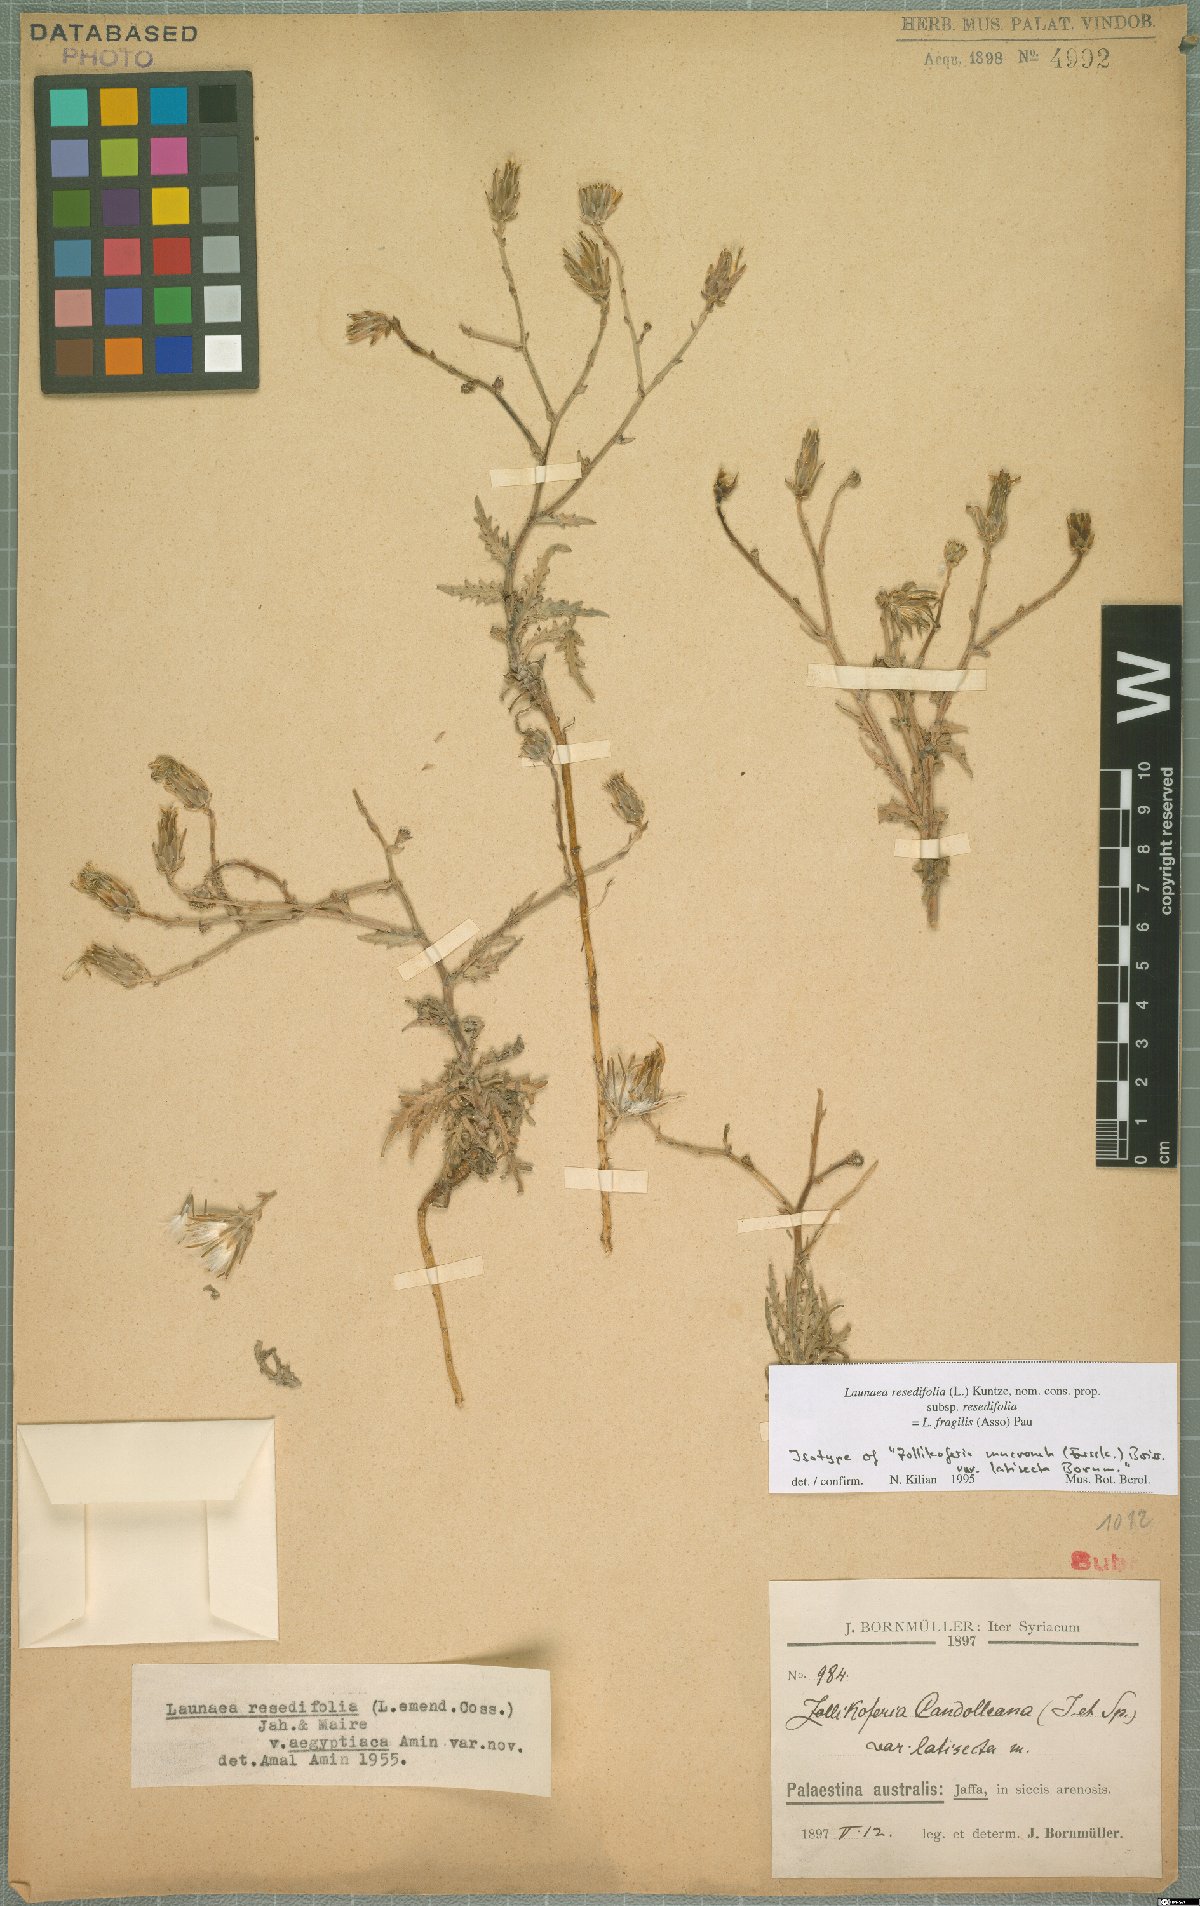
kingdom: Plantae
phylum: Tracheophyta
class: Magnoliopsida
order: Asterales
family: Asteraceae
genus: Scorzonera
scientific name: Scorzonera calcitrapifolia
